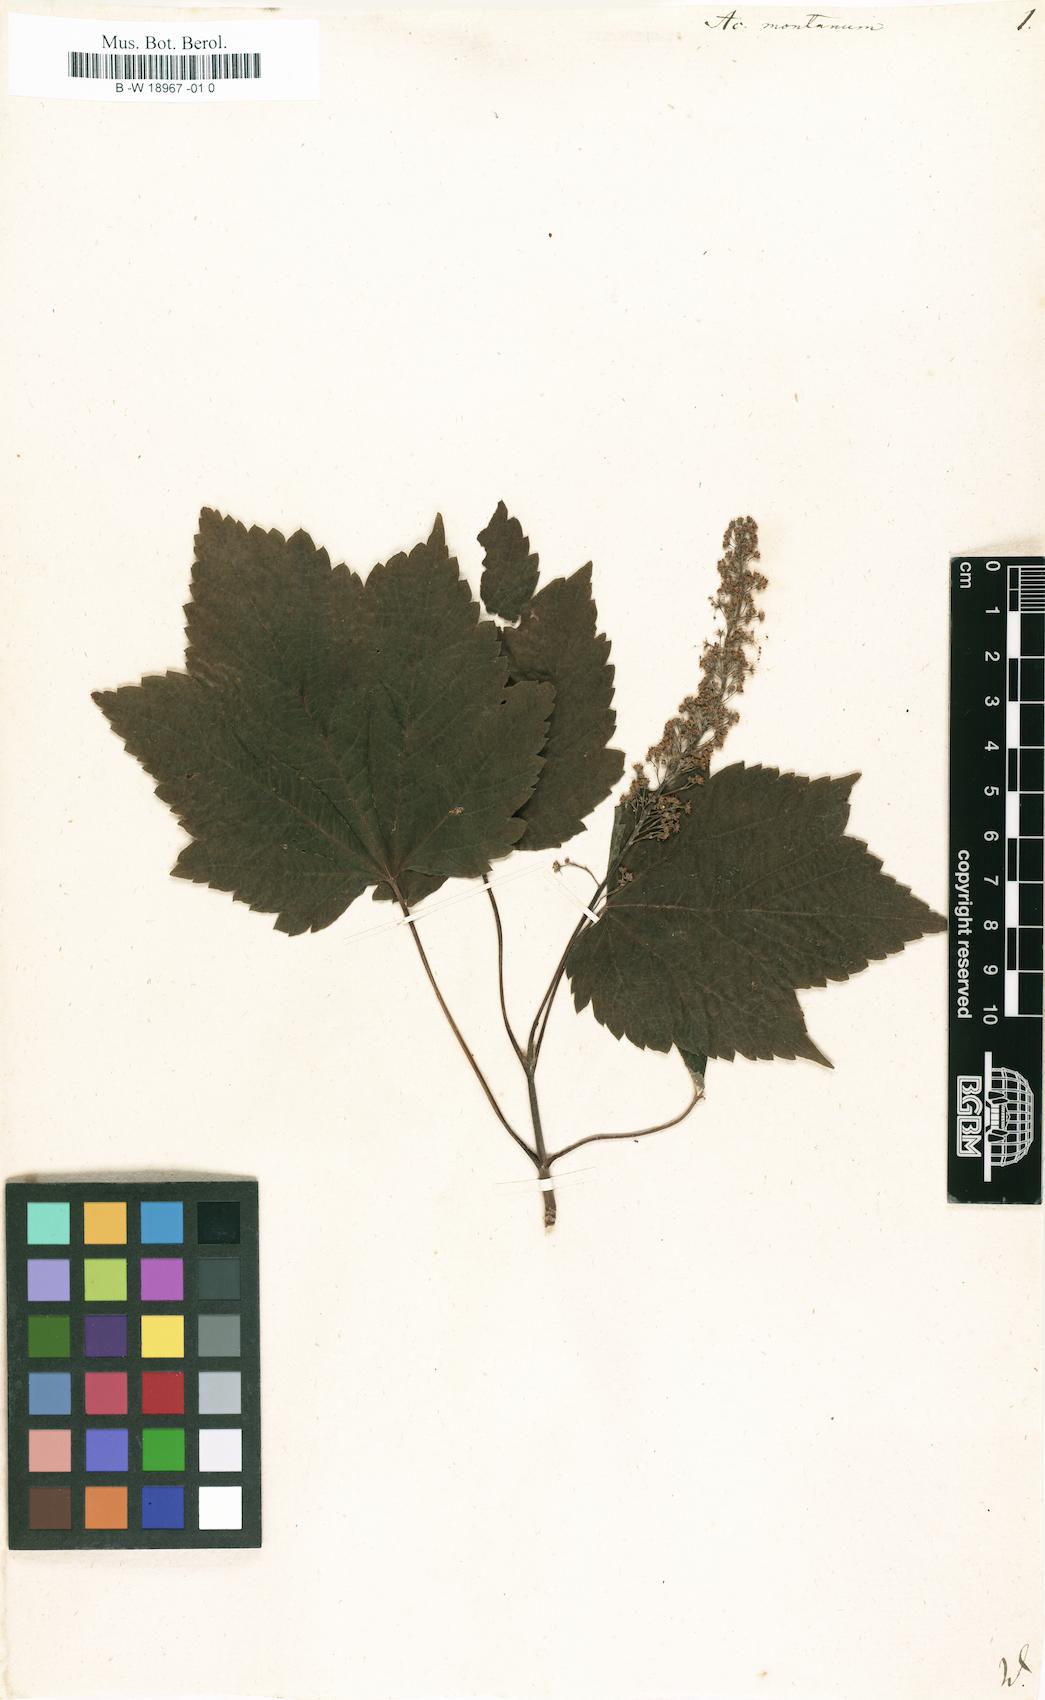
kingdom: Plantae
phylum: Tracheophyta
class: Magnoliopsida
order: Sapindales
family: Sapindaceae
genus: Acer
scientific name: Acer pseudoplatanus
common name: Sycamore
